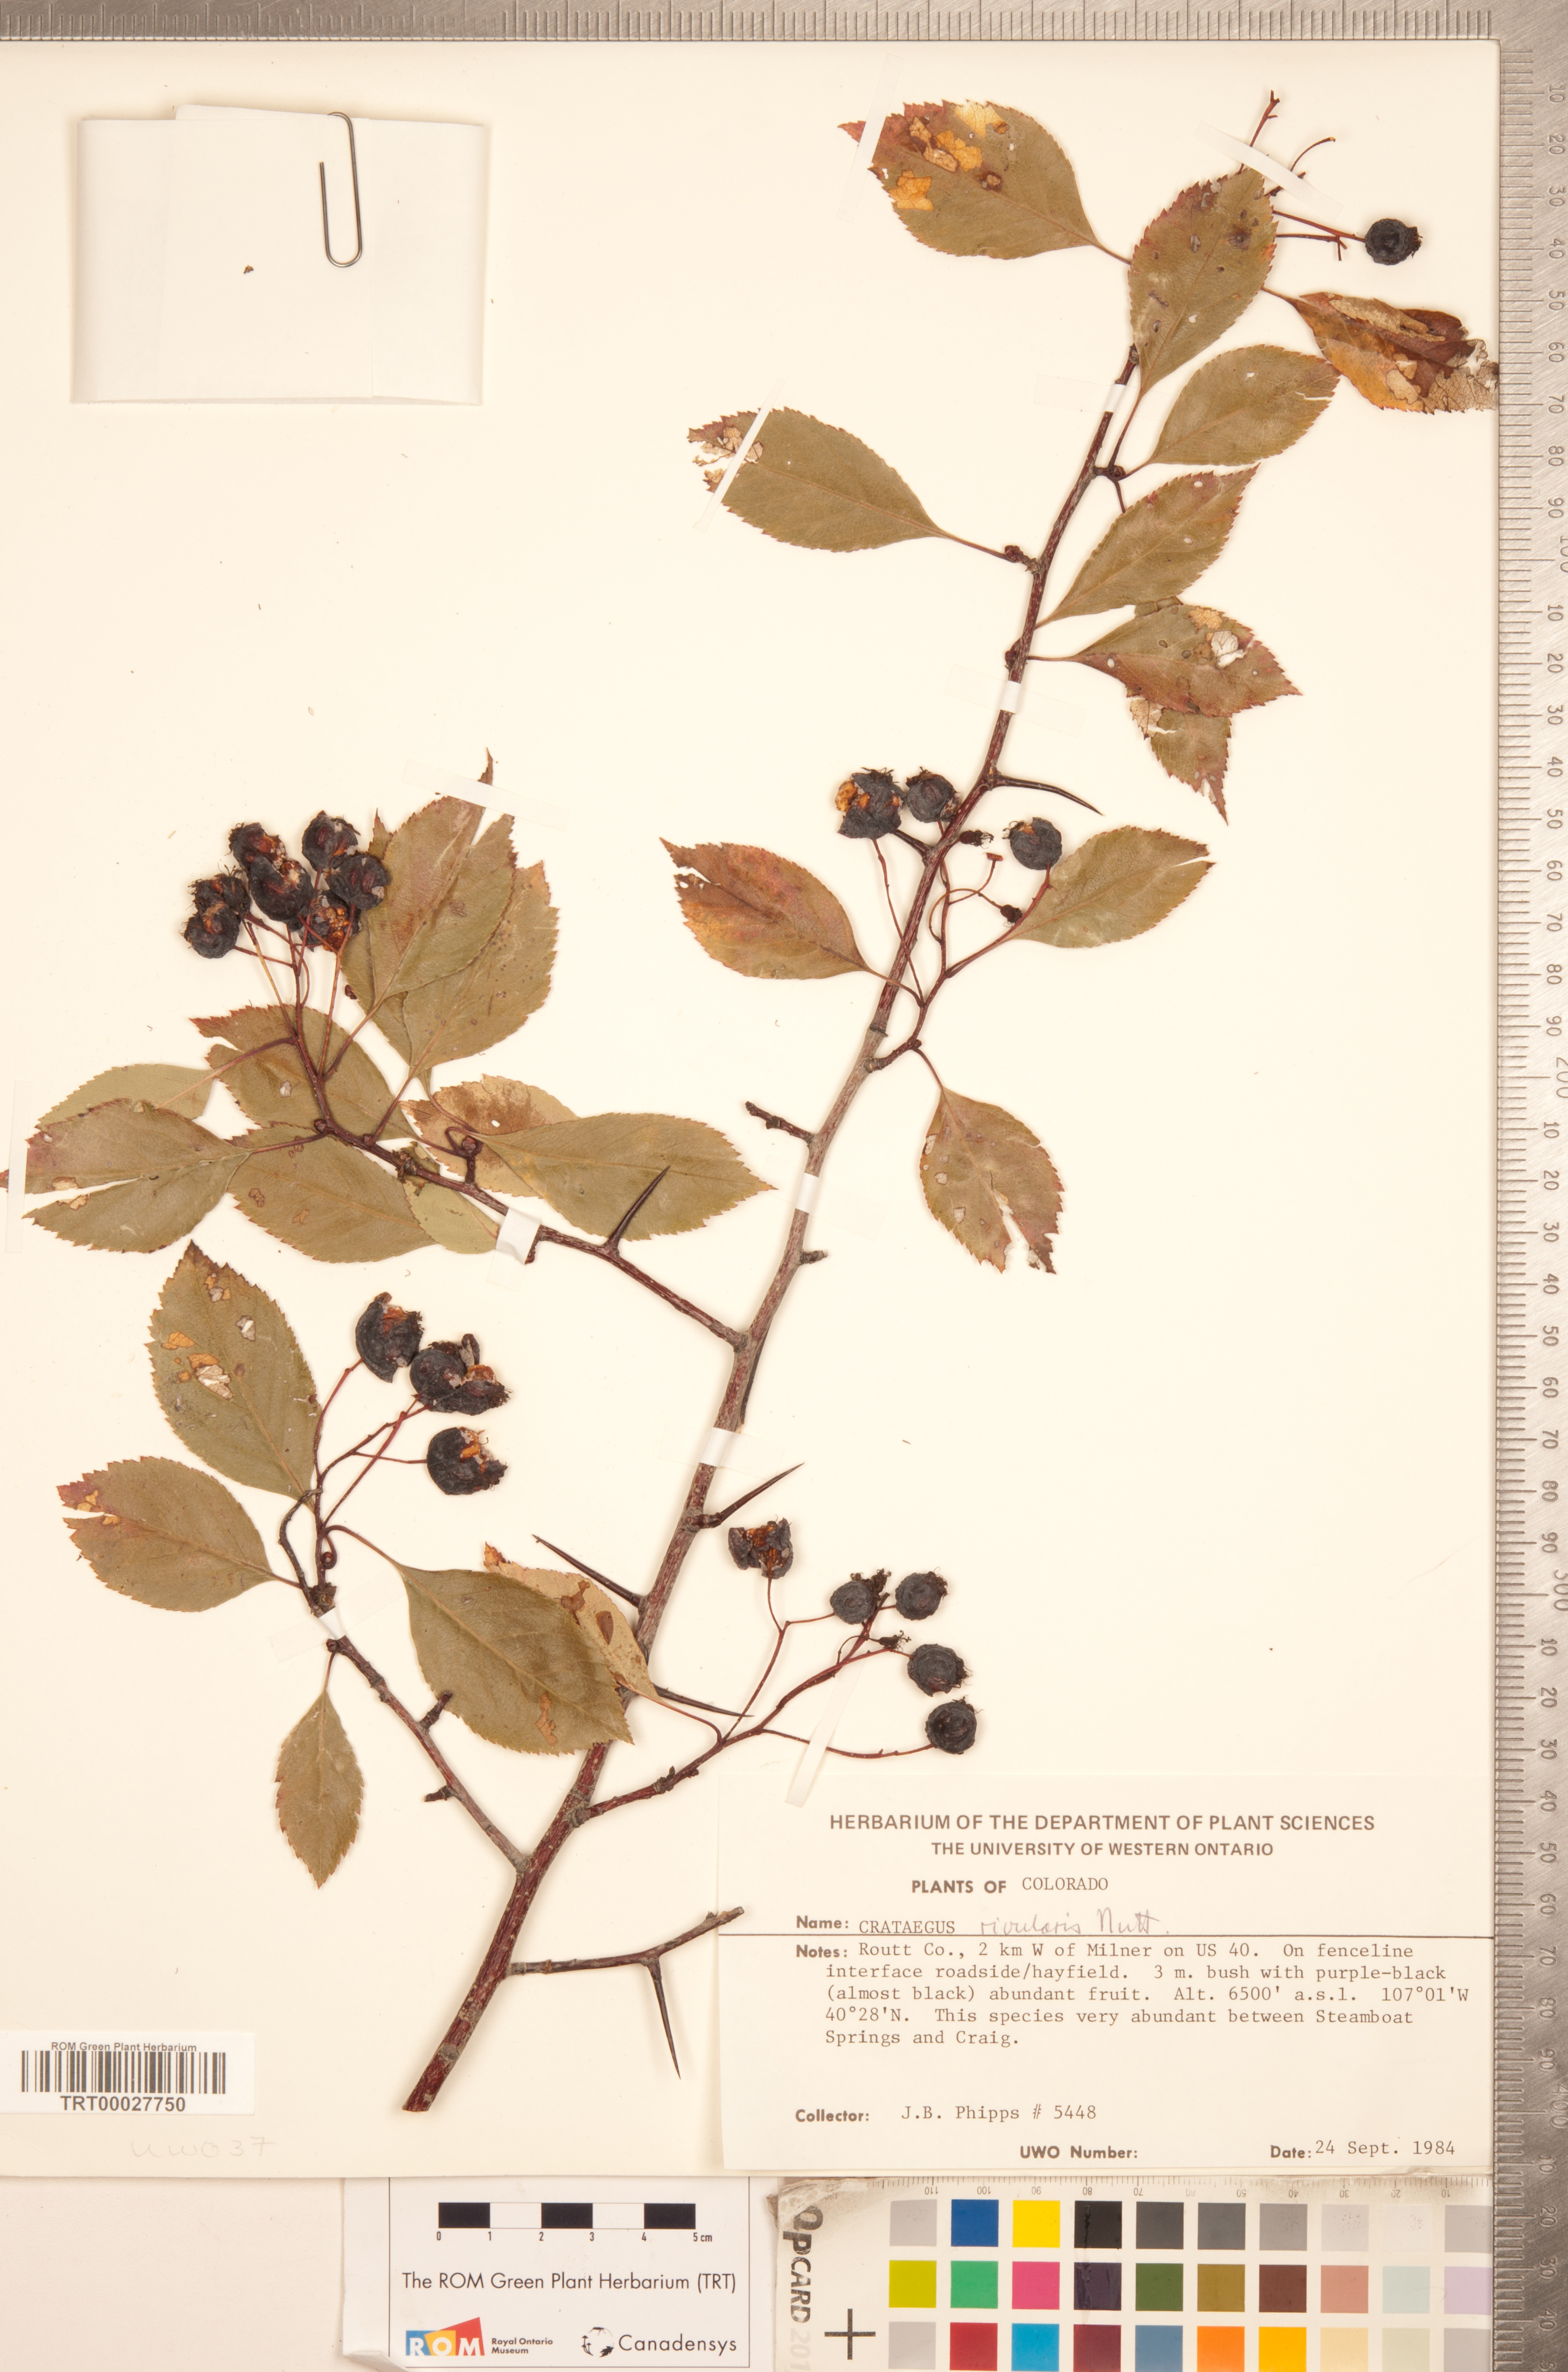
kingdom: Plantae
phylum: Tracheophyta
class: Magnoliopsida
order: Rosales
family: Rosaceae
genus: Crataegus
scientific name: Crataegus rivularis
